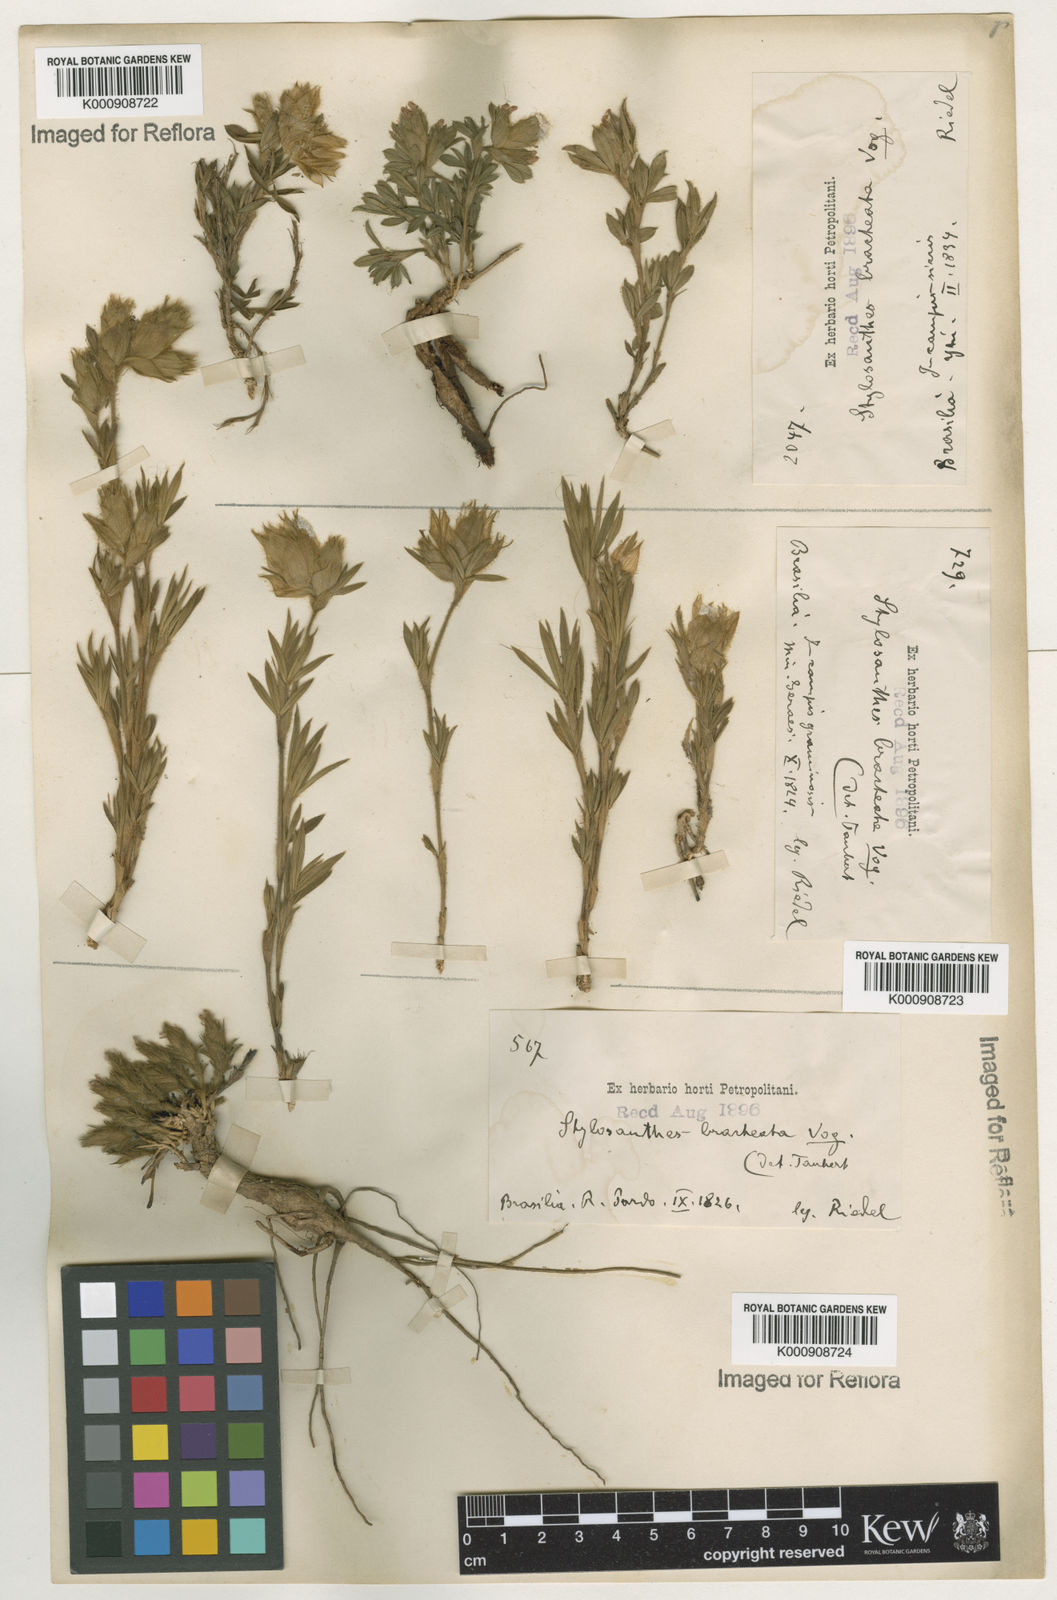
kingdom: Plantae
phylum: Tracheophyta
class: Magnoliopsida
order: Fabales
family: Fabaceae
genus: Stylosanthes
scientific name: Stylosanthes bracteata
